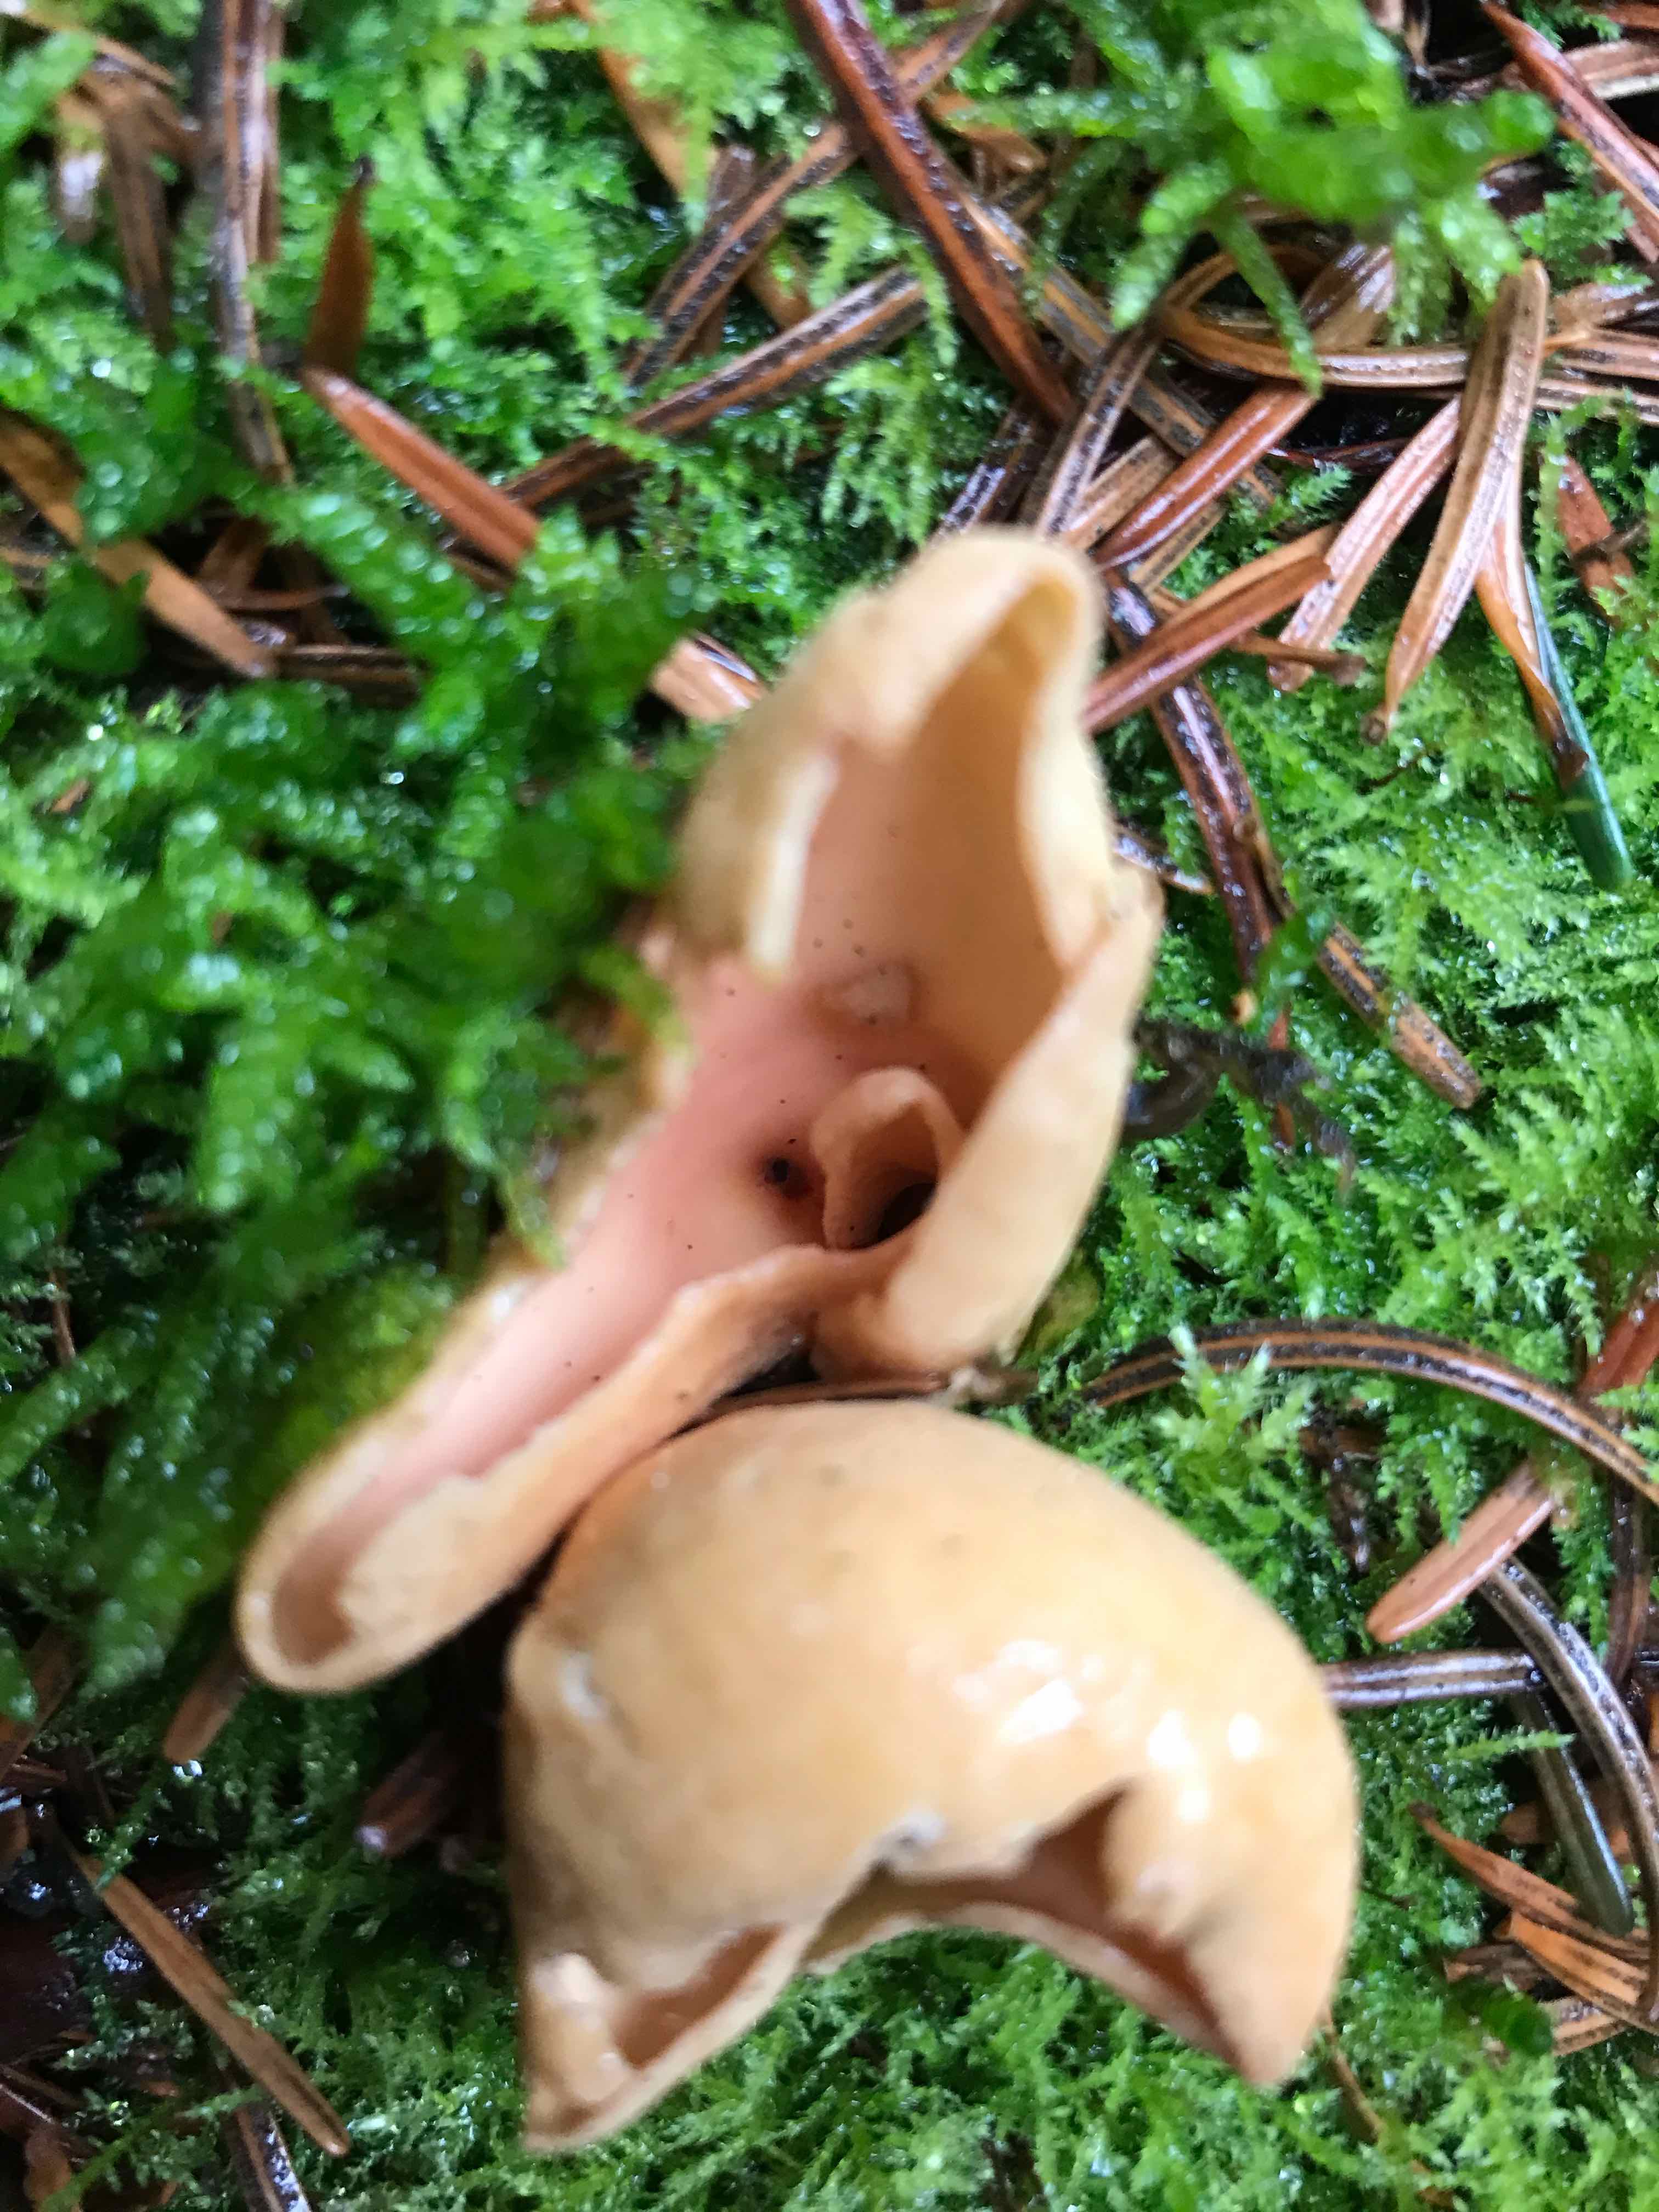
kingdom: Fungi
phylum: Ascomycota
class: Pezizomycetes
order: Pezizales
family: Otideaceae
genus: Otidea
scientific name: Otidea onotica
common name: æsel-ørebæger
